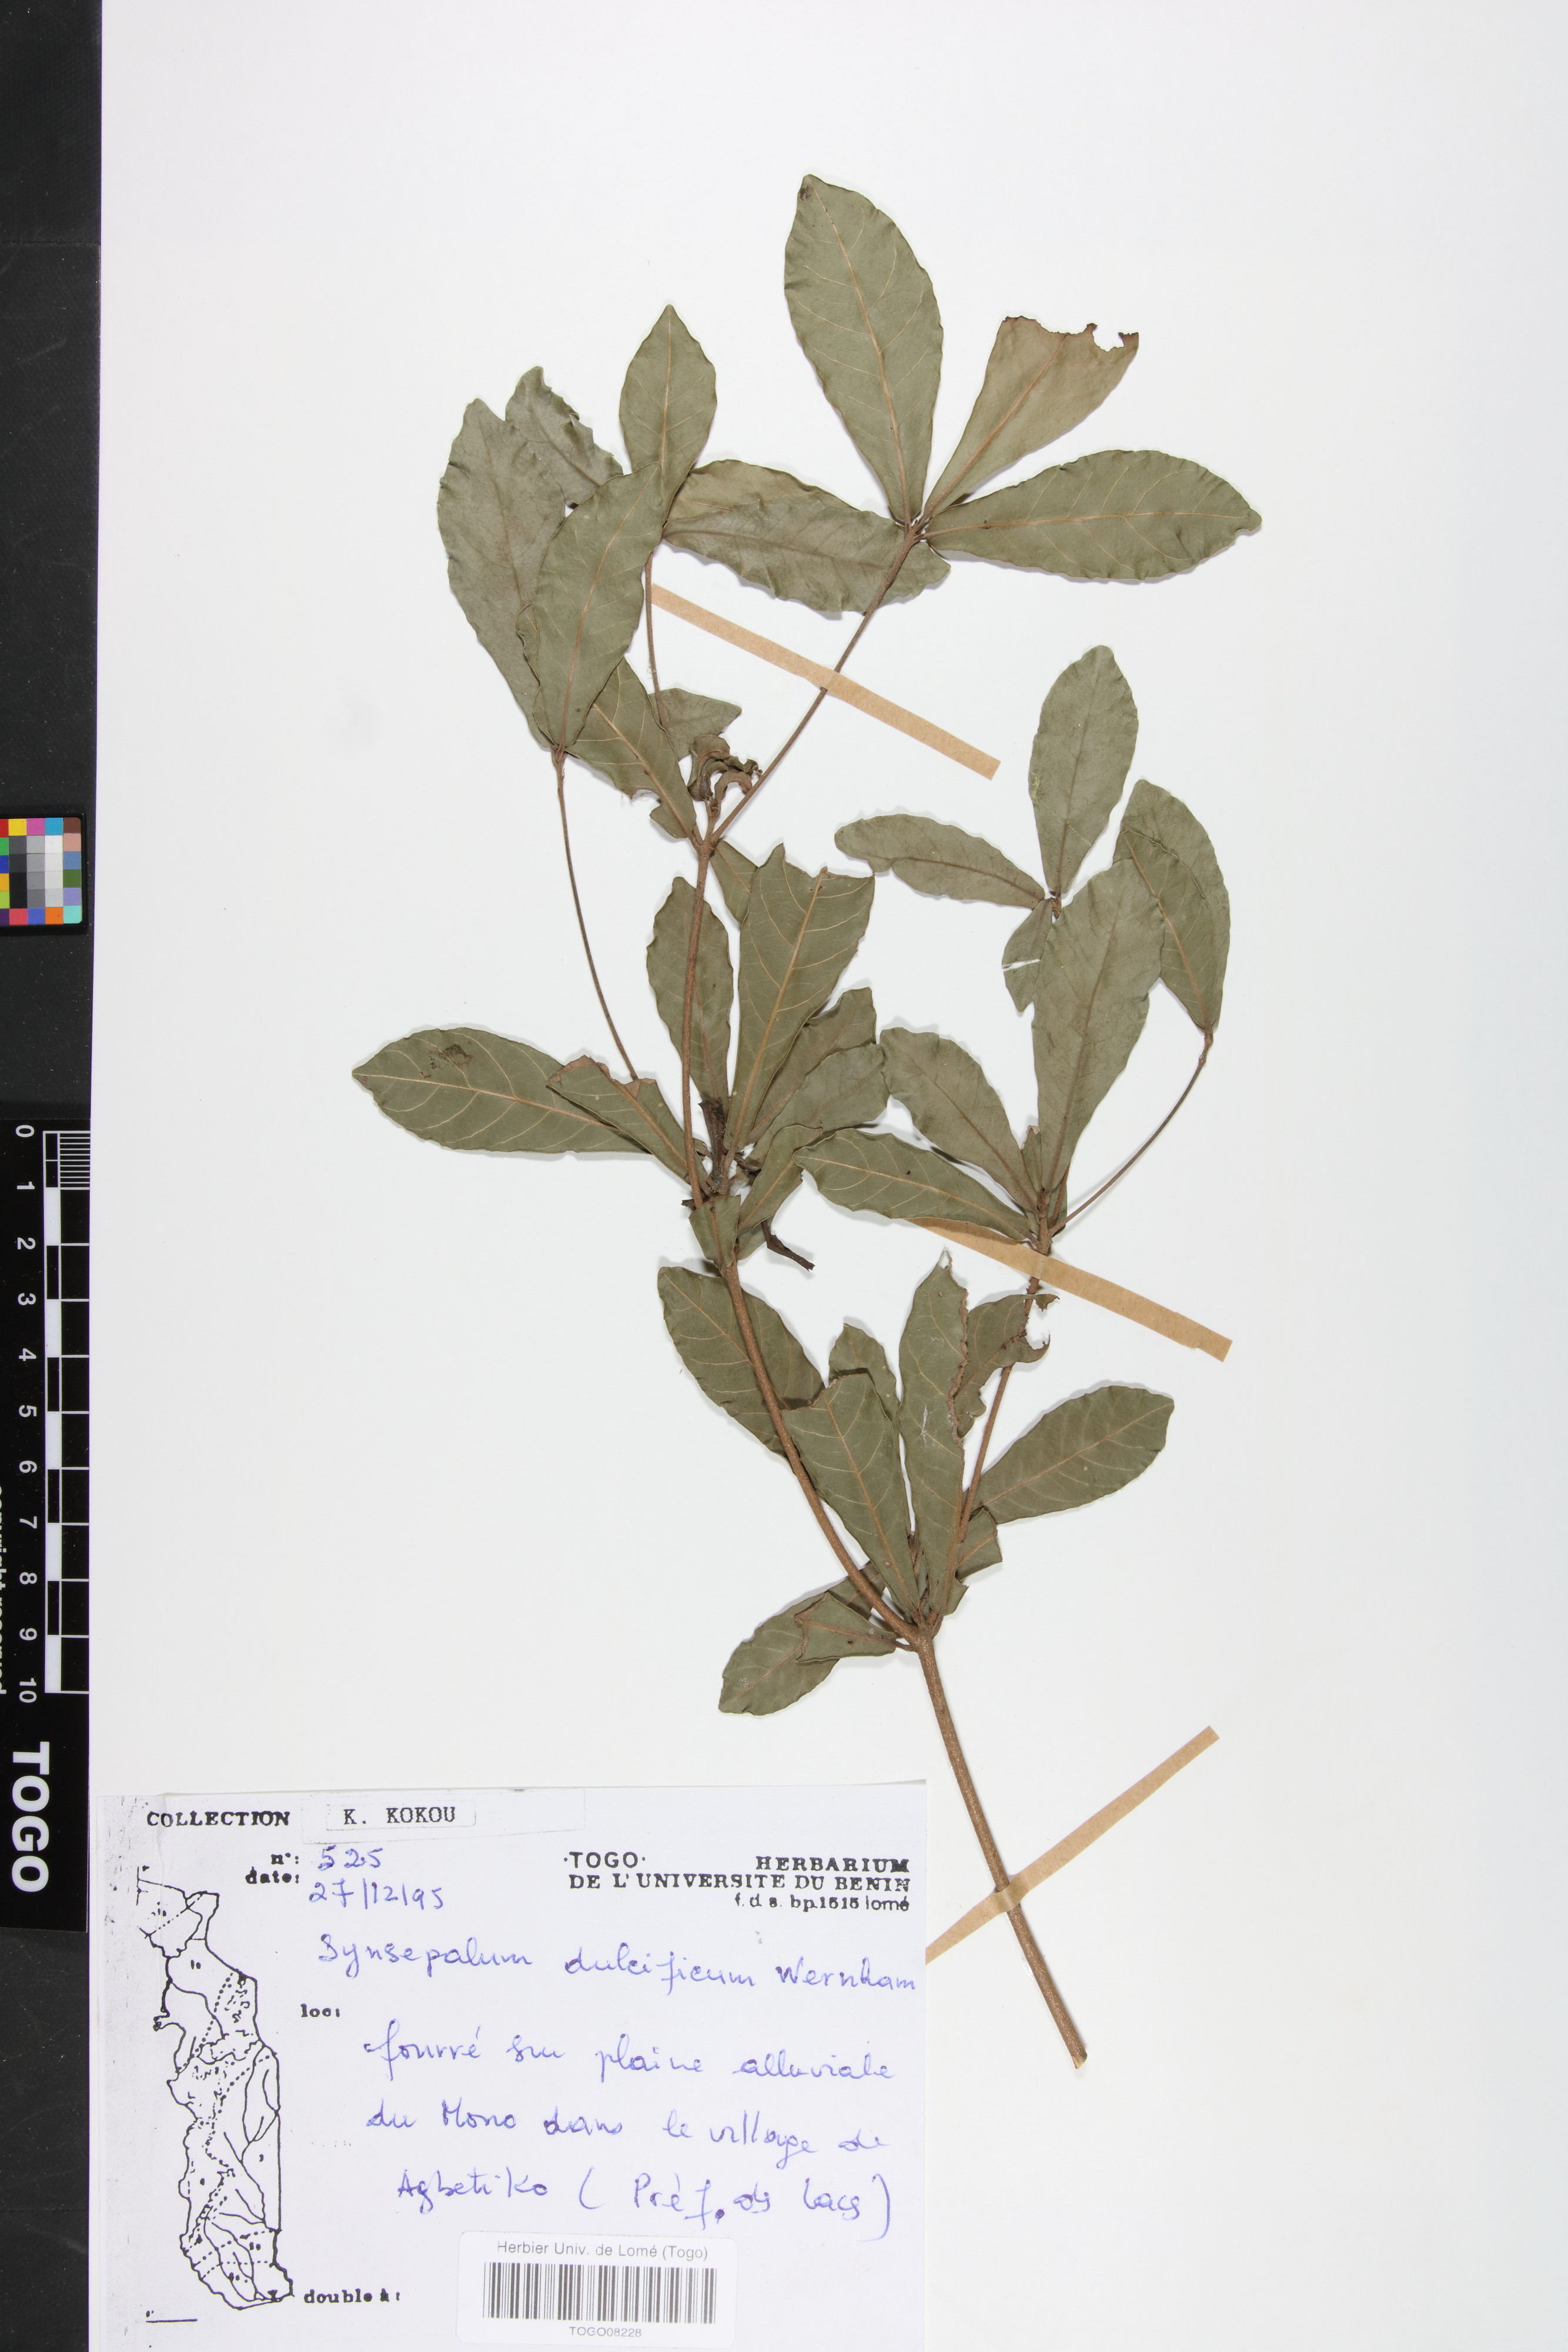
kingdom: Plantae
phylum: Tracheophyta
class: Magnoliopsida
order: Ericales
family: Sapotaceae
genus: Synsepalum
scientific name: Synsepalum dulcificum
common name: Miracle-fruit
